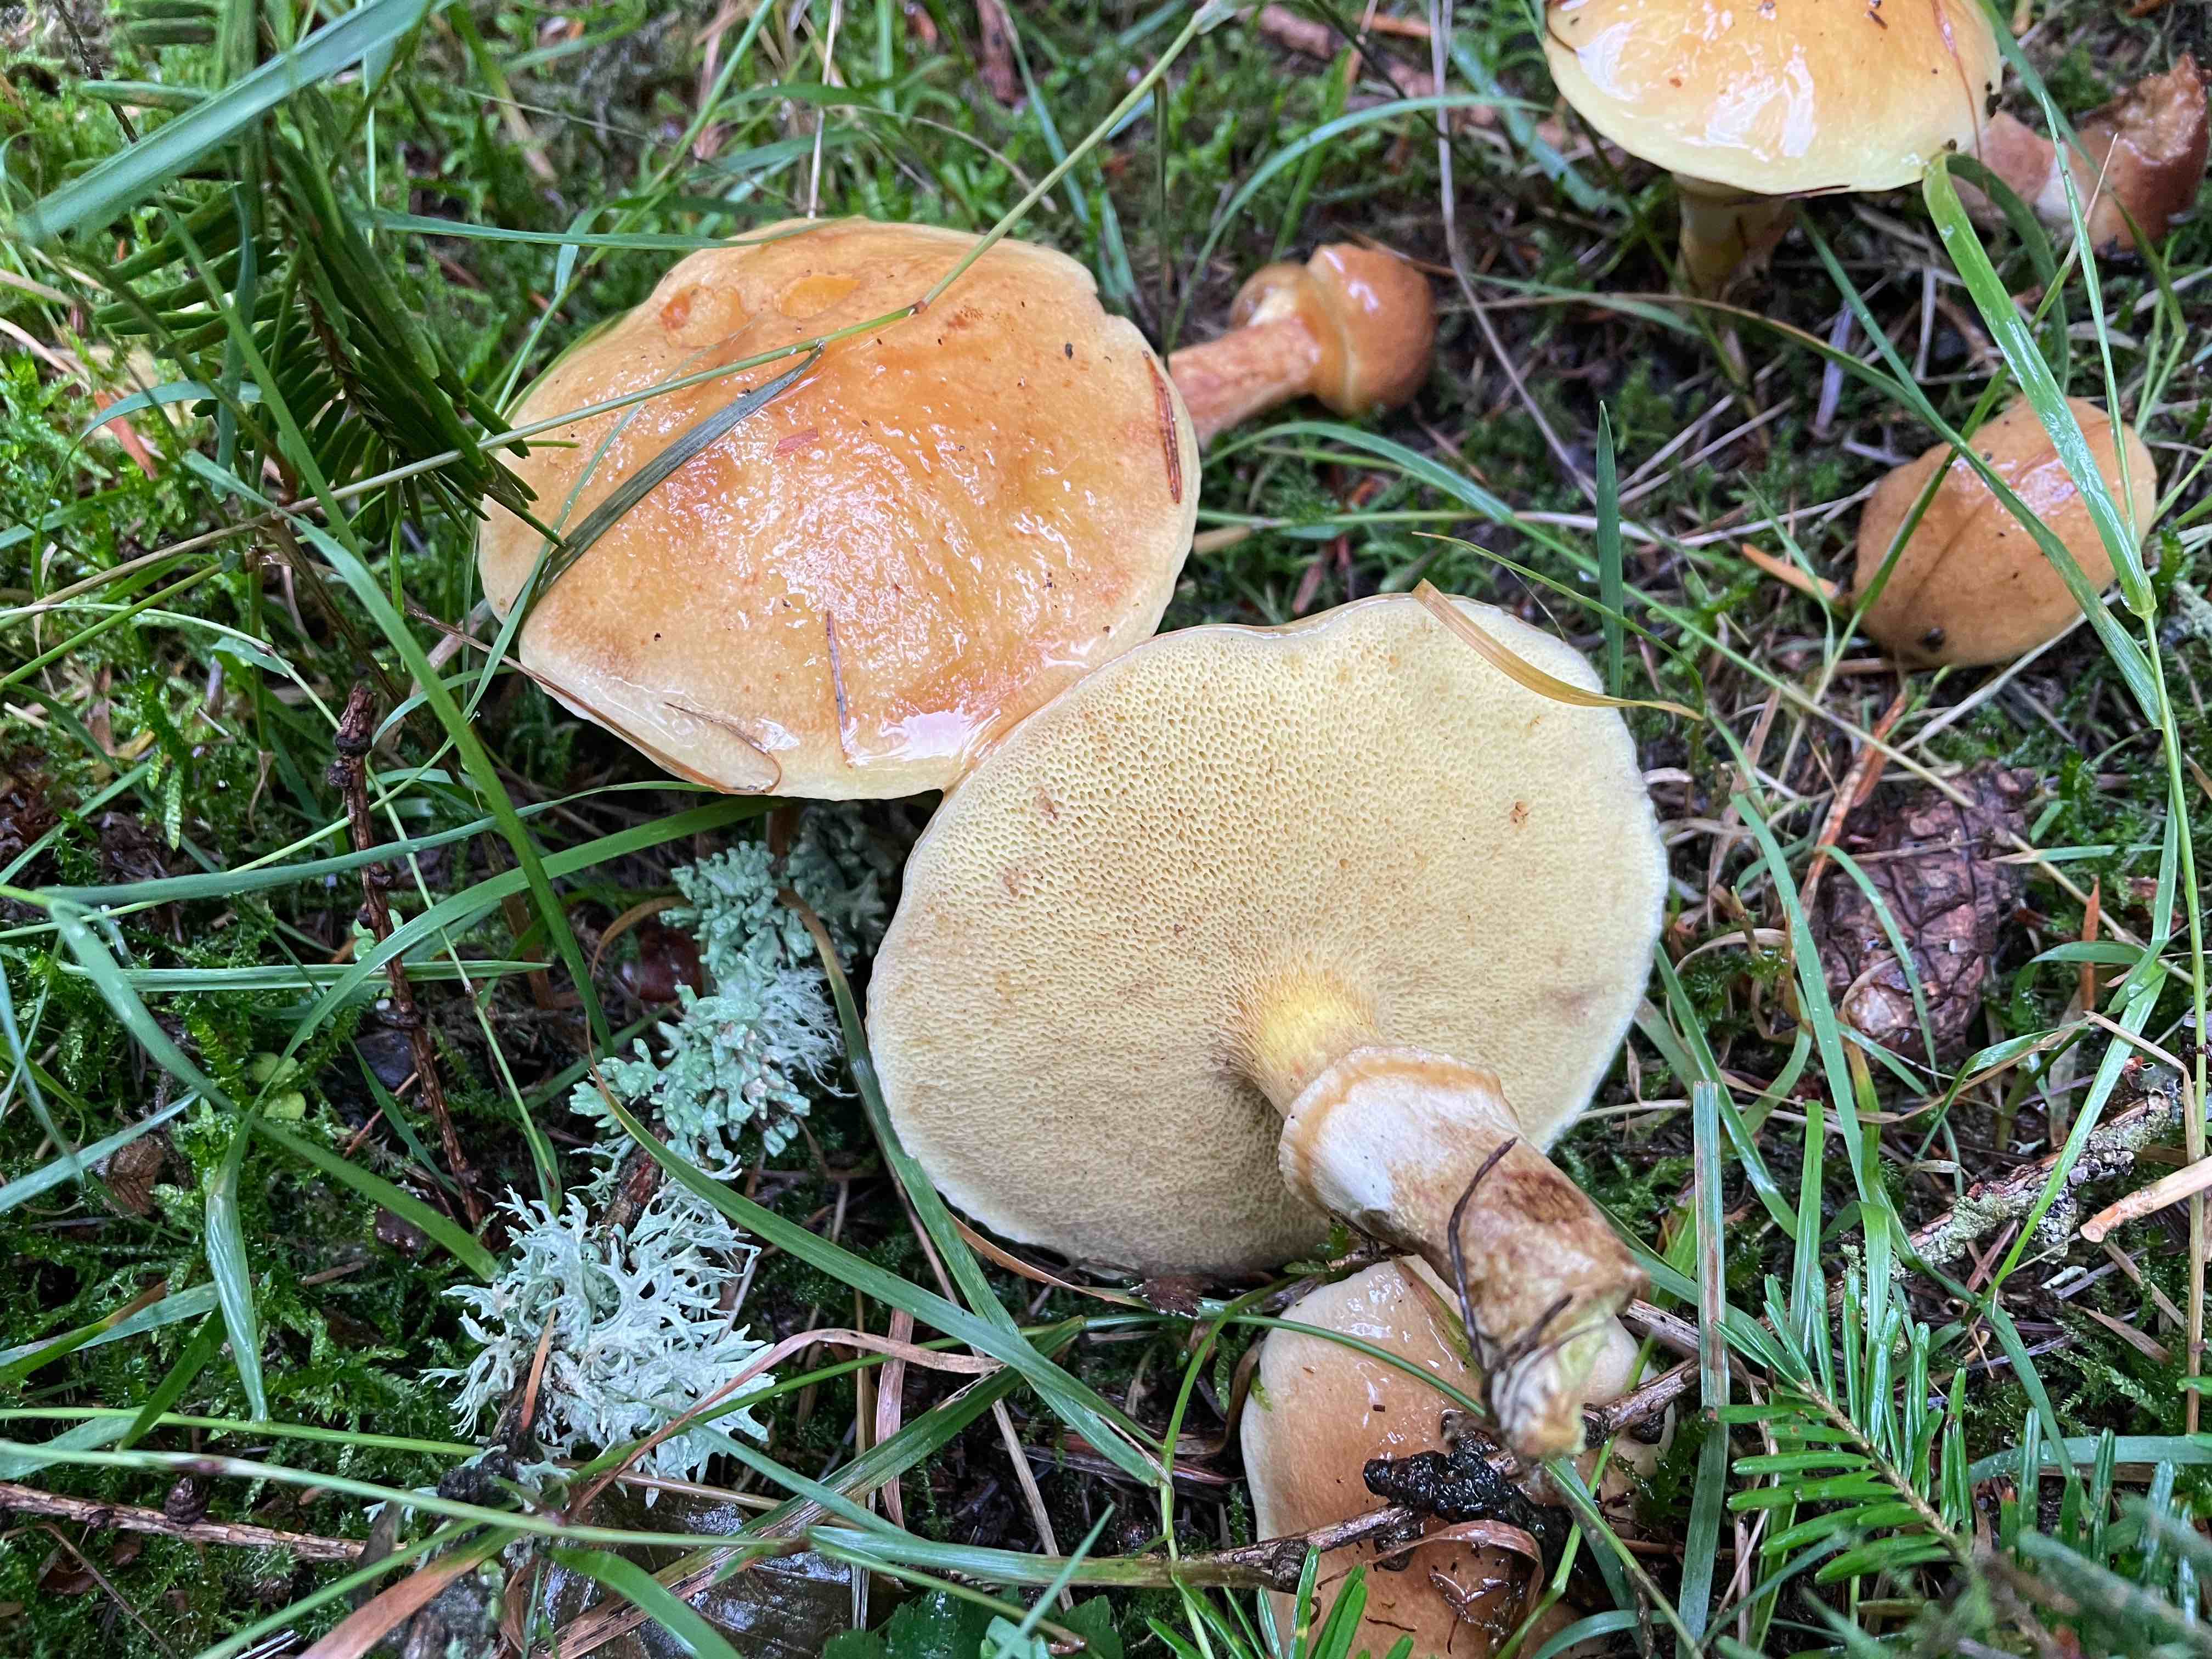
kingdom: Fungi
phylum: Basidiomycota
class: Agaricomycetes
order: Boletales
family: Suillaceae
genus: Suillus
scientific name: Suillus grevillei
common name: lærke-slimrørhat
